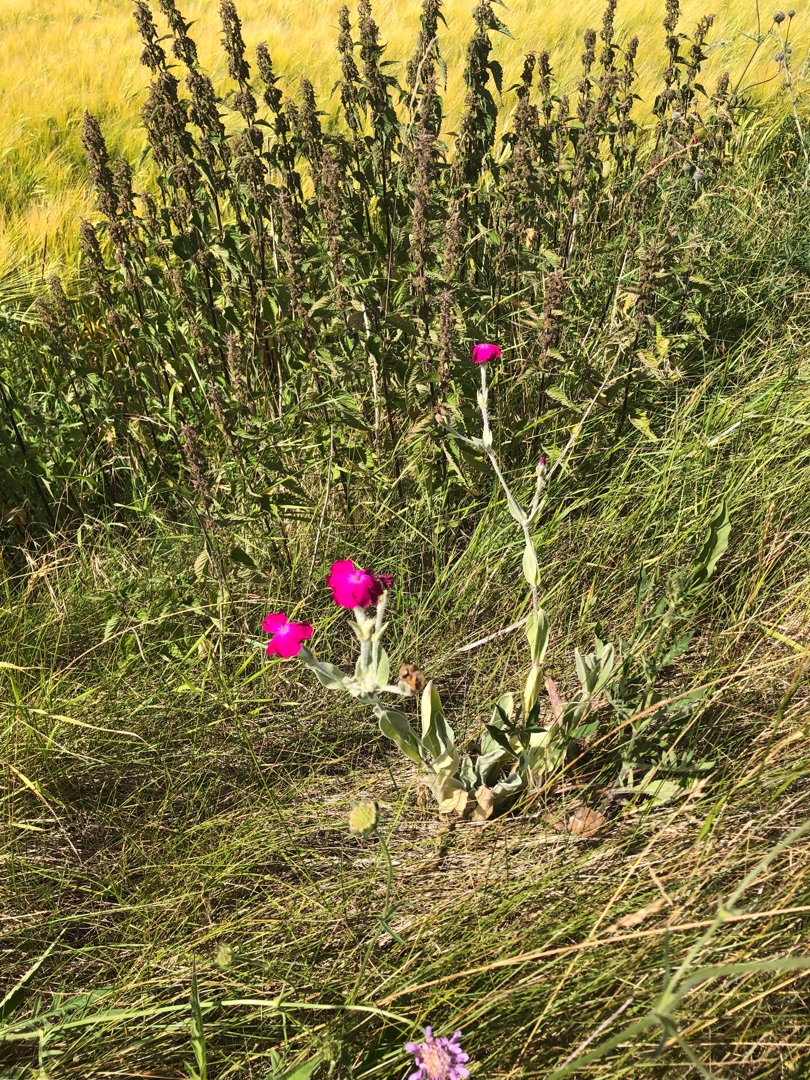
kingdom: Plantae
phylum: Tracheophyta
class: Magnoliopsida
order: Caryophyllales
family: Caryophyllaceae
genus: Silene
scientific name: Silene coronaria
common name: Fiksernellike
